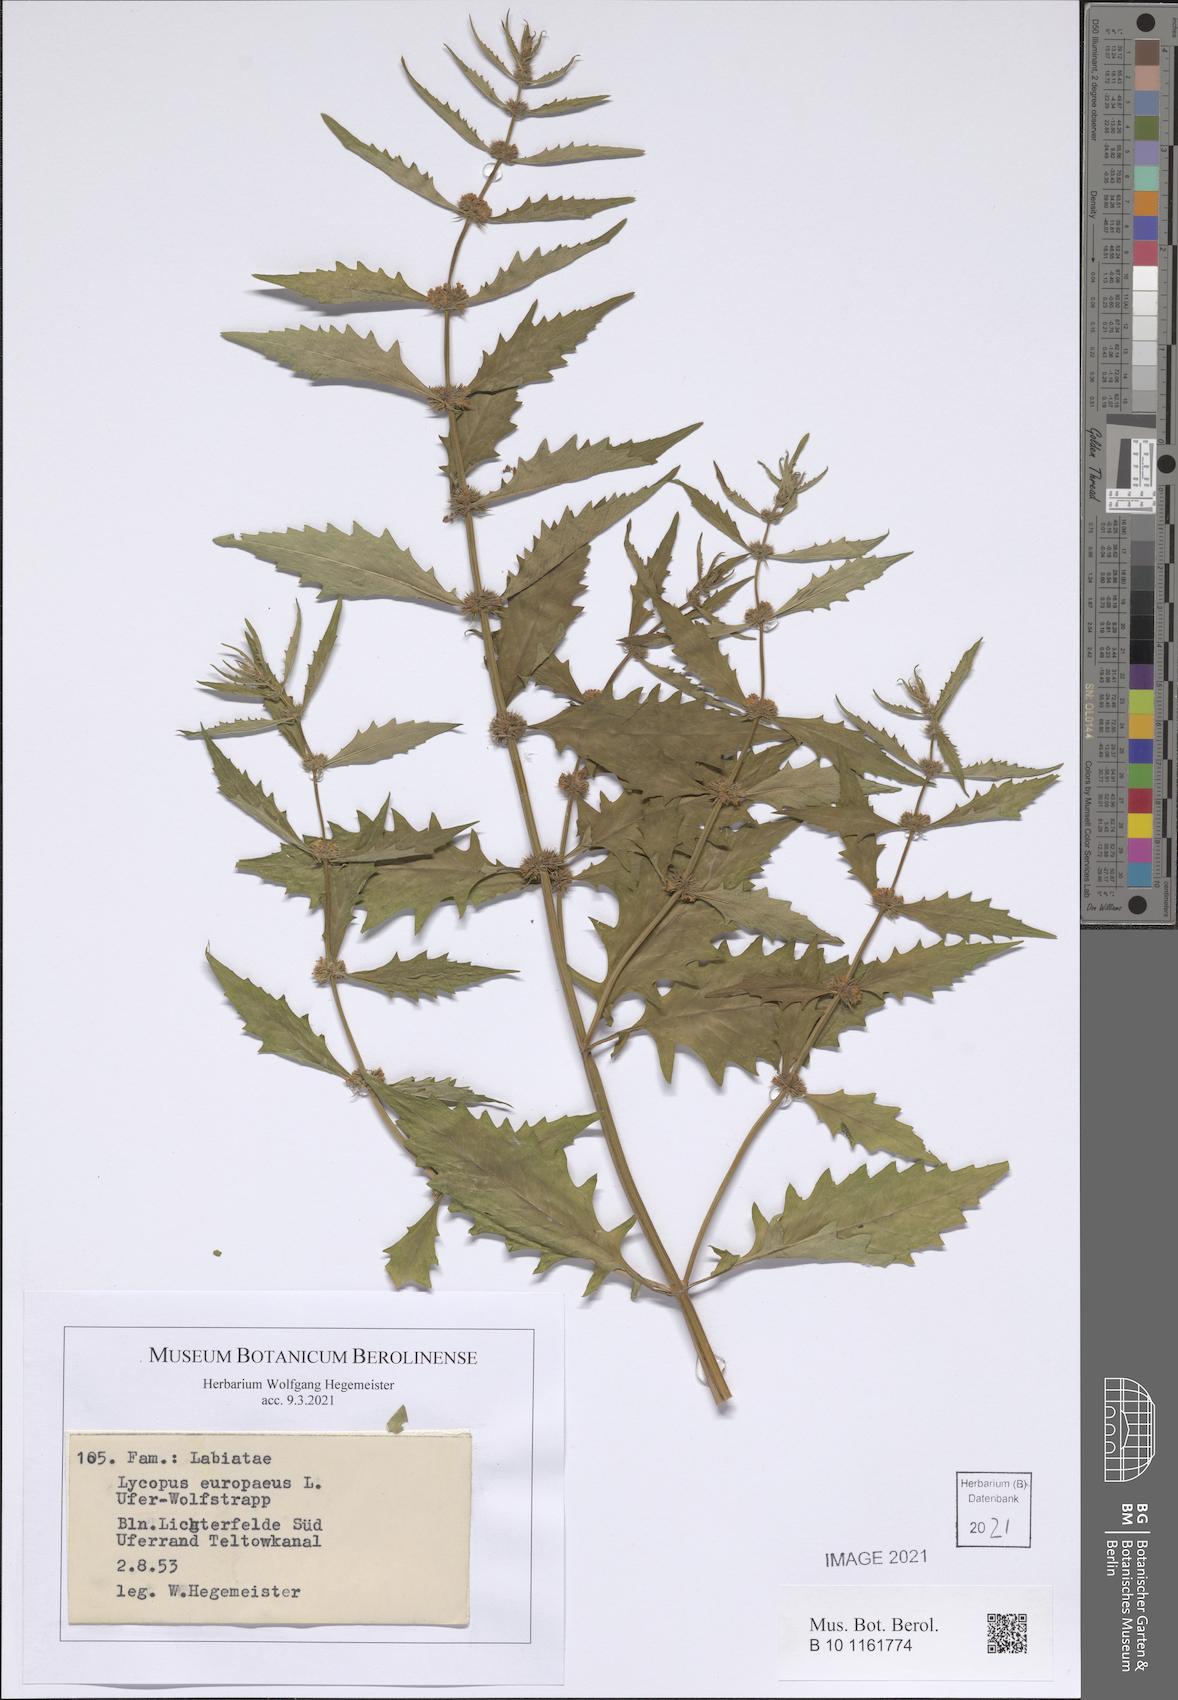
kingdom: Plantae
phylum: Tracheophyta
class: Magnoliopsida
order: Lamiales
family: Lamiaceae
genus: Lycopus
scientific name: Lycopus europaeus
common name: European bugleweed
